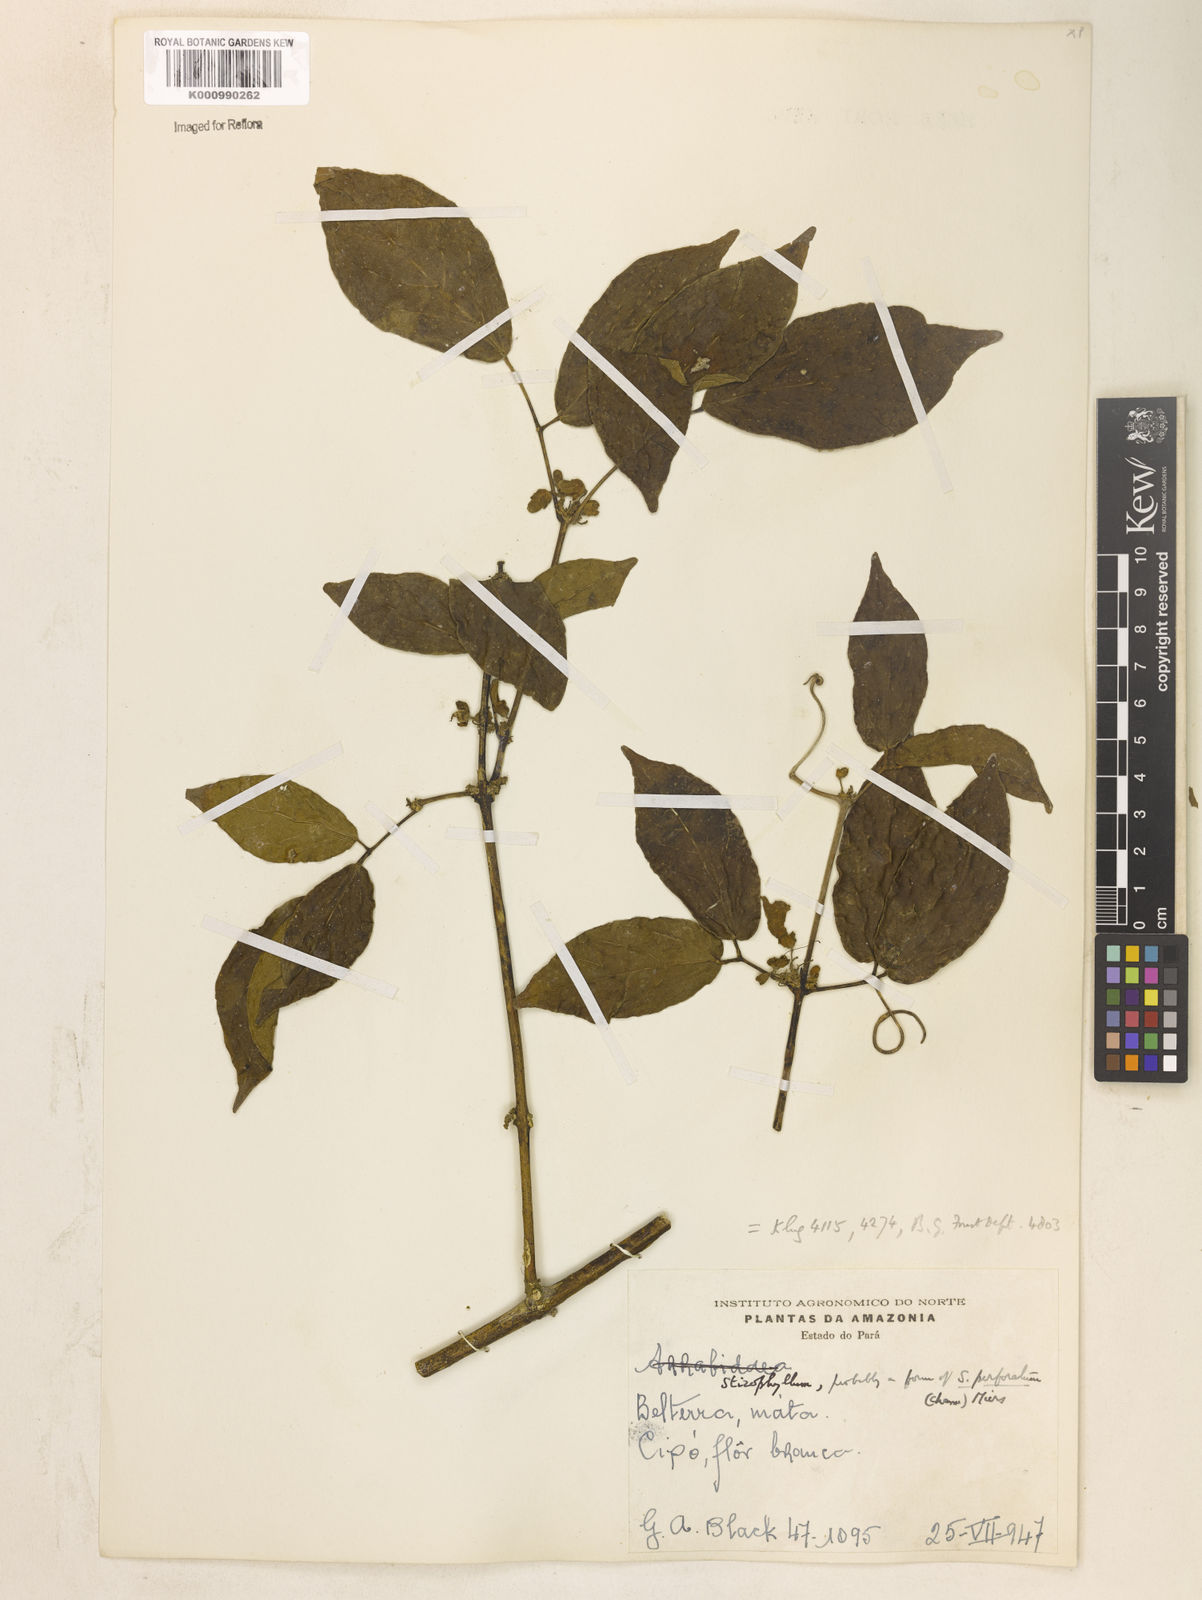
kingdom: Plantae
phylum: Tracheophyta
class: Magnoliopsida
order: Lamiales
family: Bignoniaceae
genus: Stizophyllum
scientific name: Stizophyllum riparium
